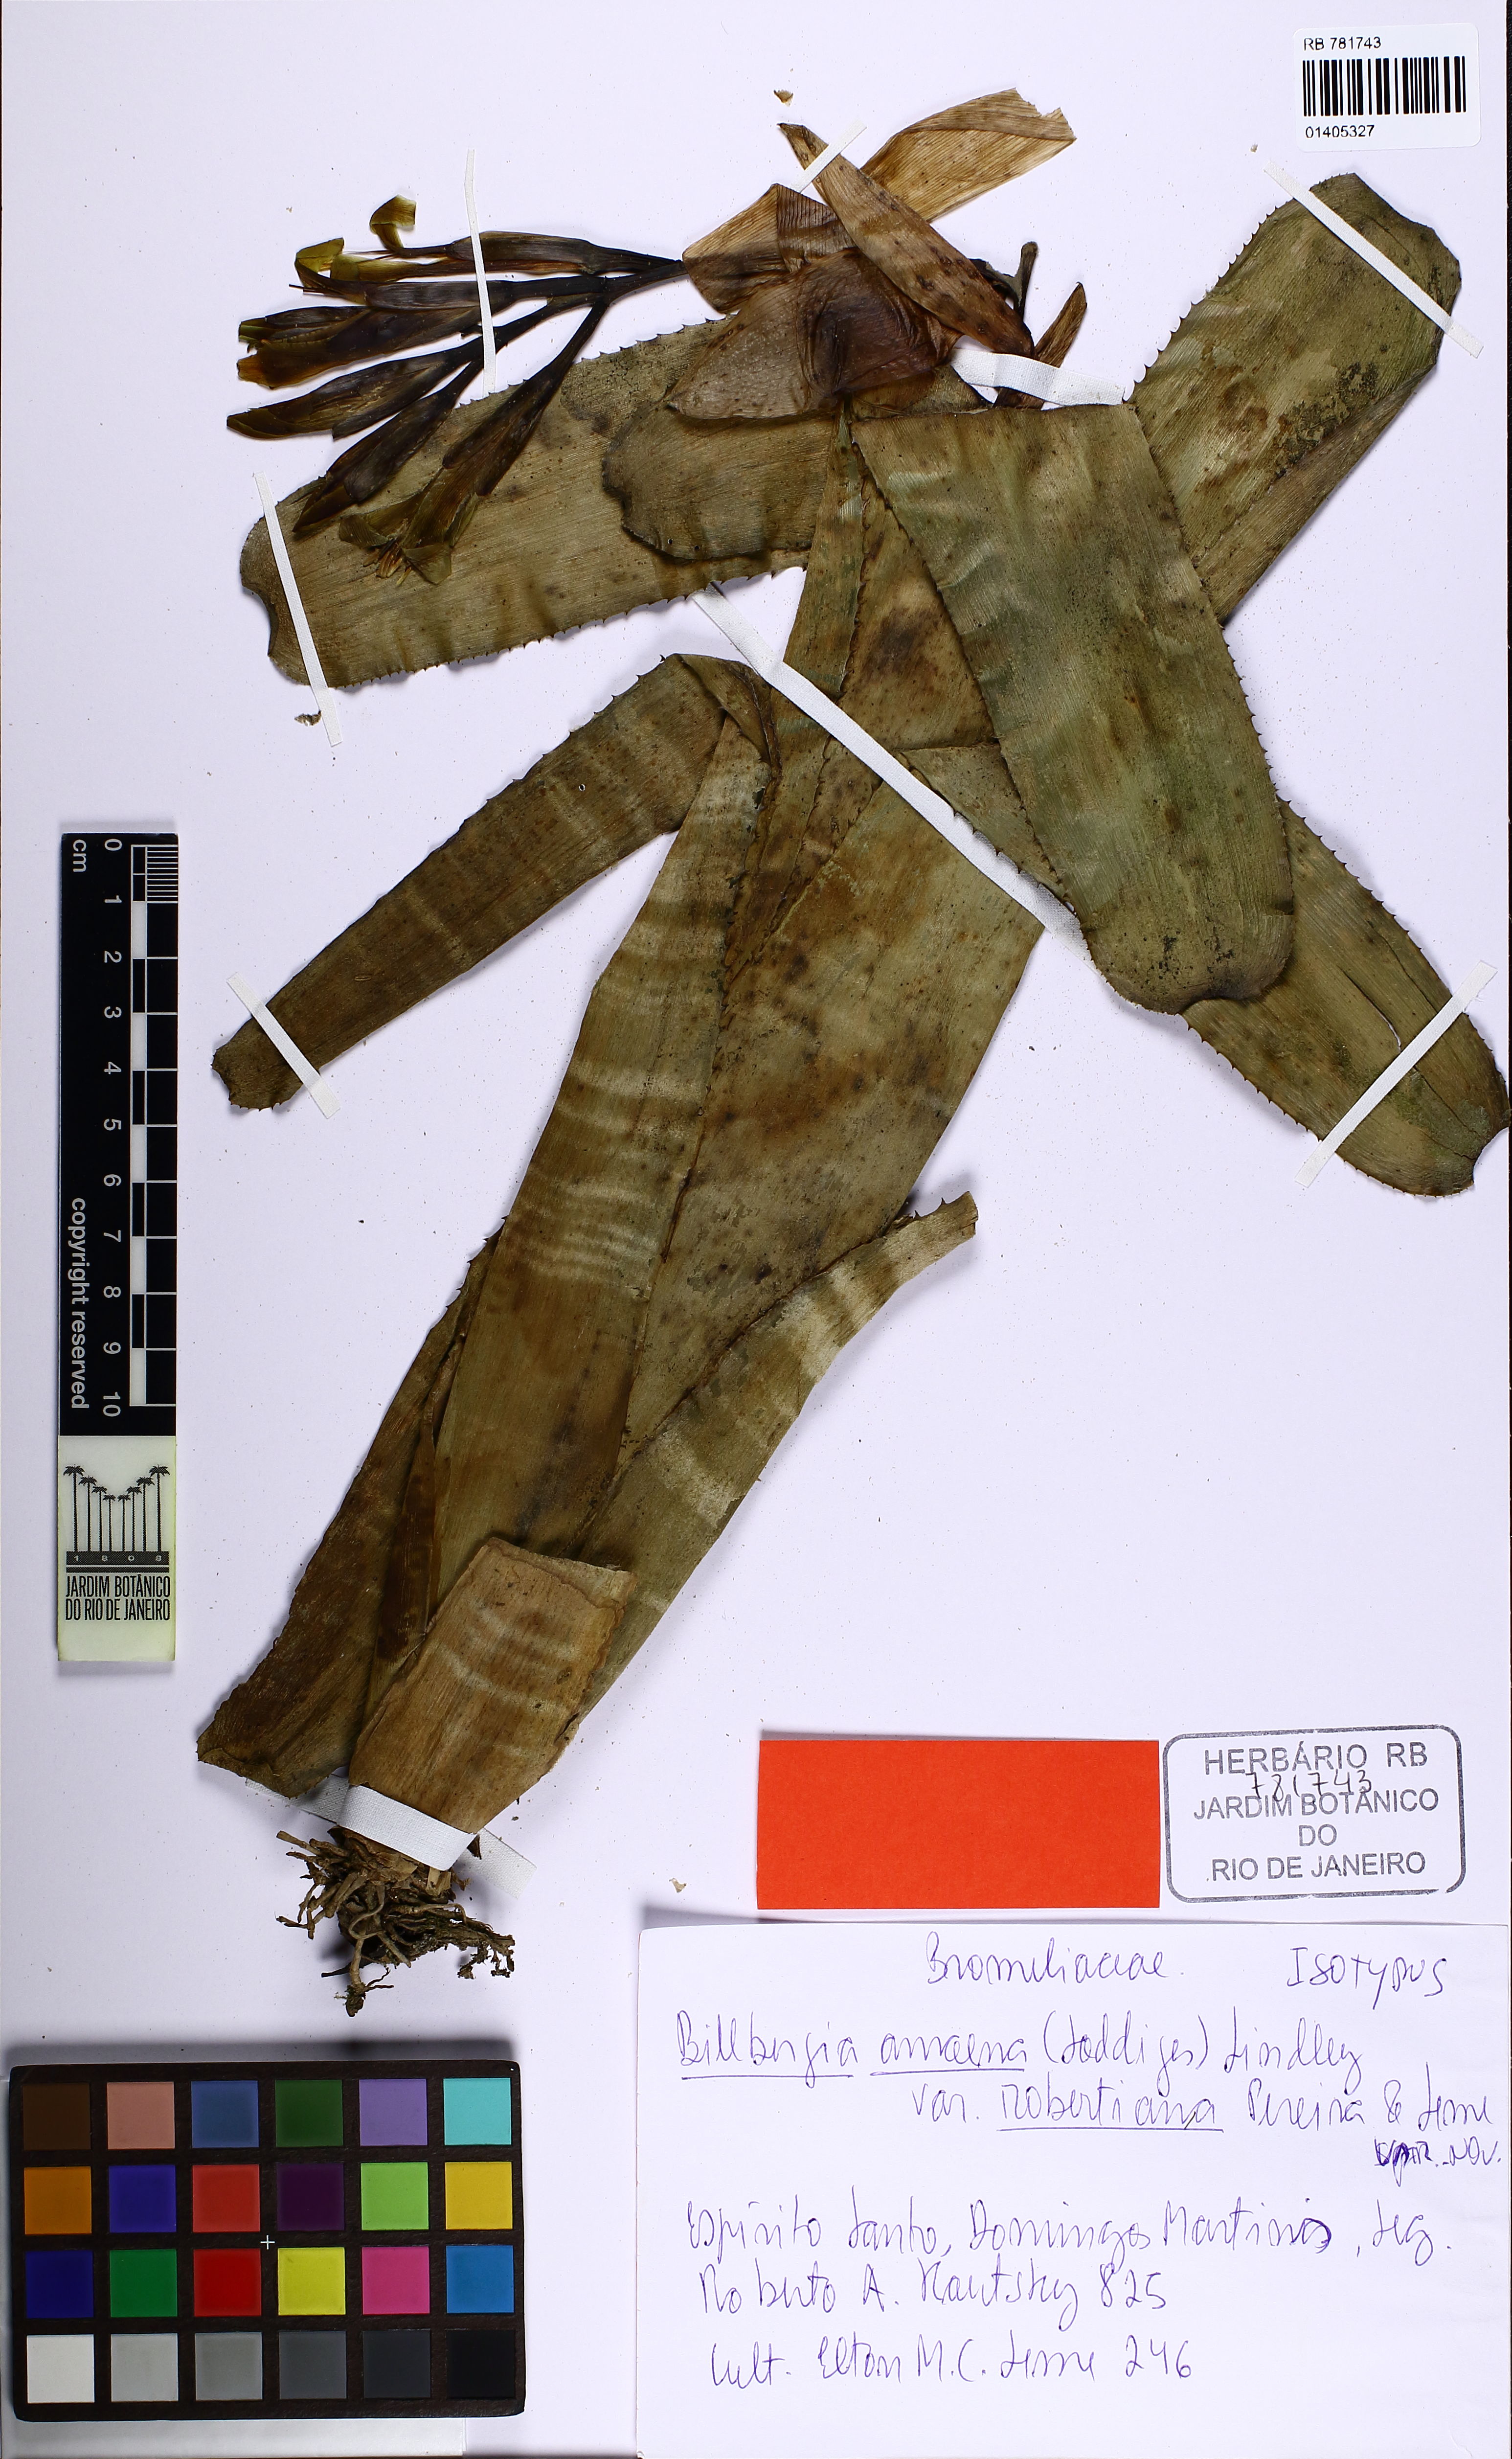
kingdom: Plantae
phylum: Tracheophyta
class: Liliopsida
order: Poales
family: Bromeliaceae
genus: Billbergia
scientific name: Billbergia amoena
